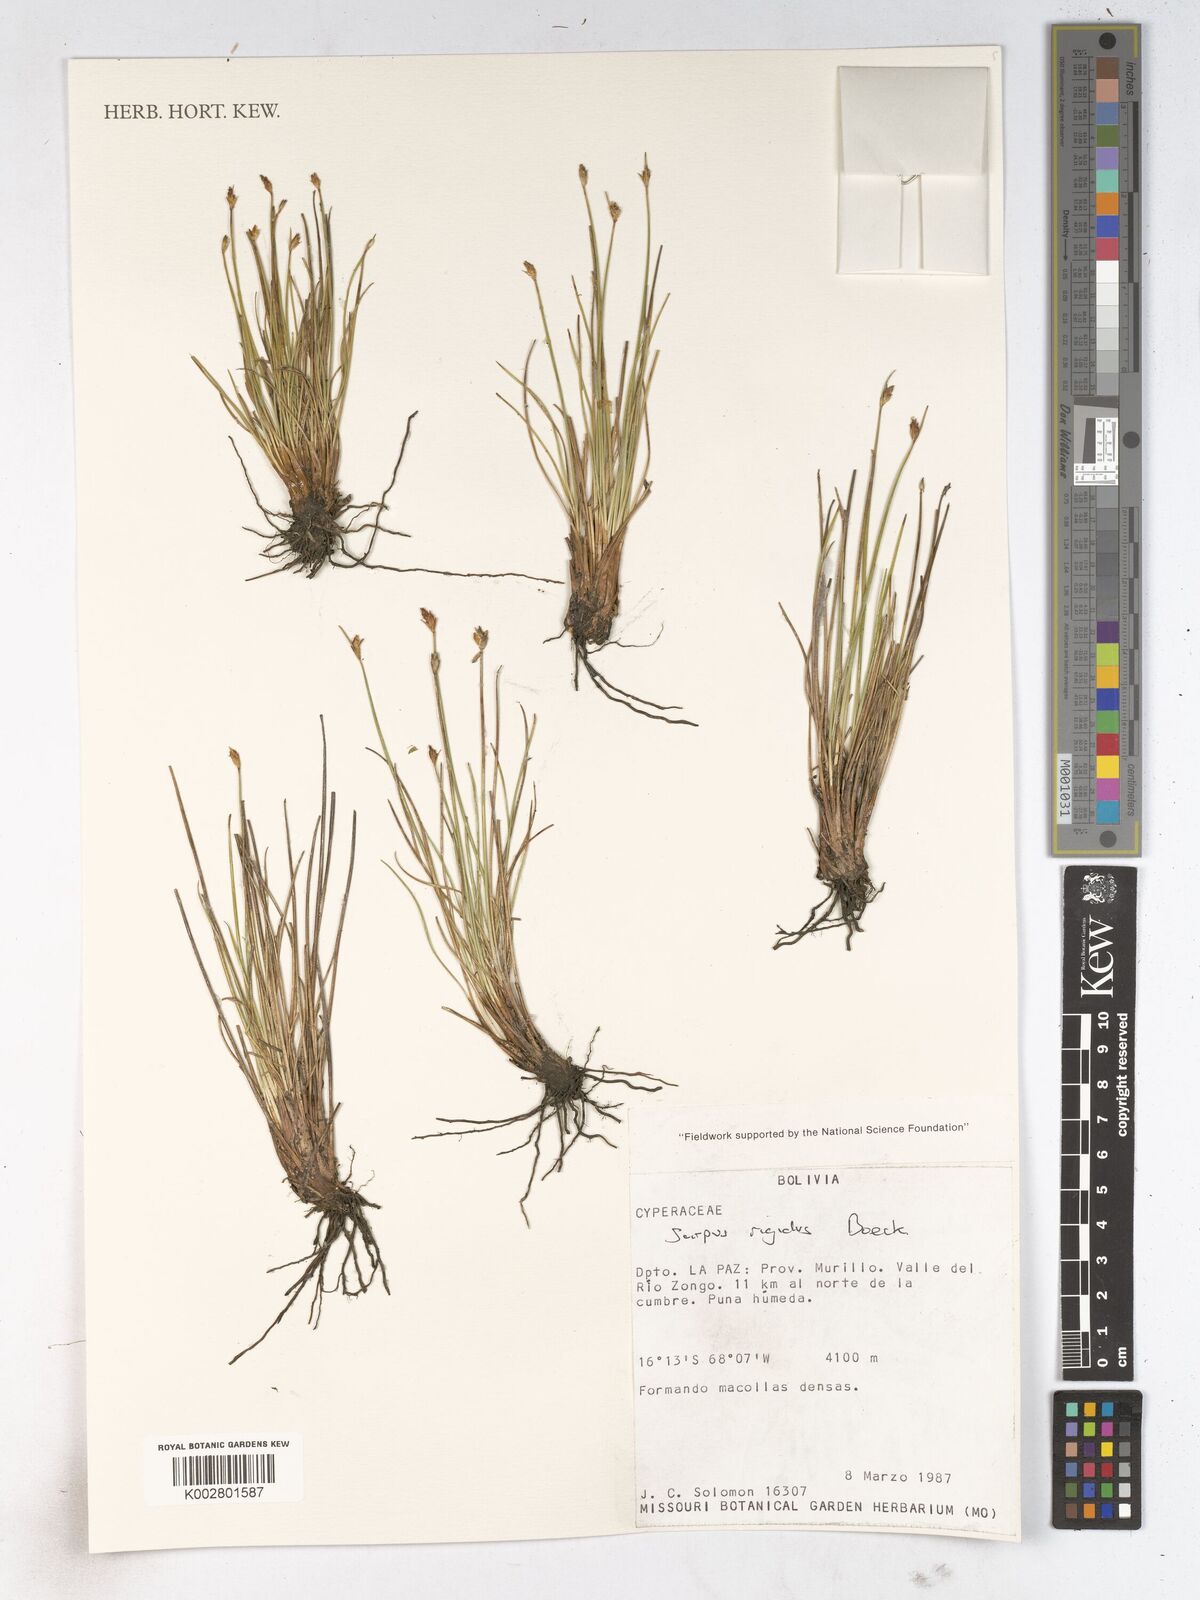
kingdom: Plantae
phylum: Tracheophyta
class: Liliopsida
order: Poales
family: Cyperaceae
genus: Trichophorum
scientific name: Trichophorum rigidum
